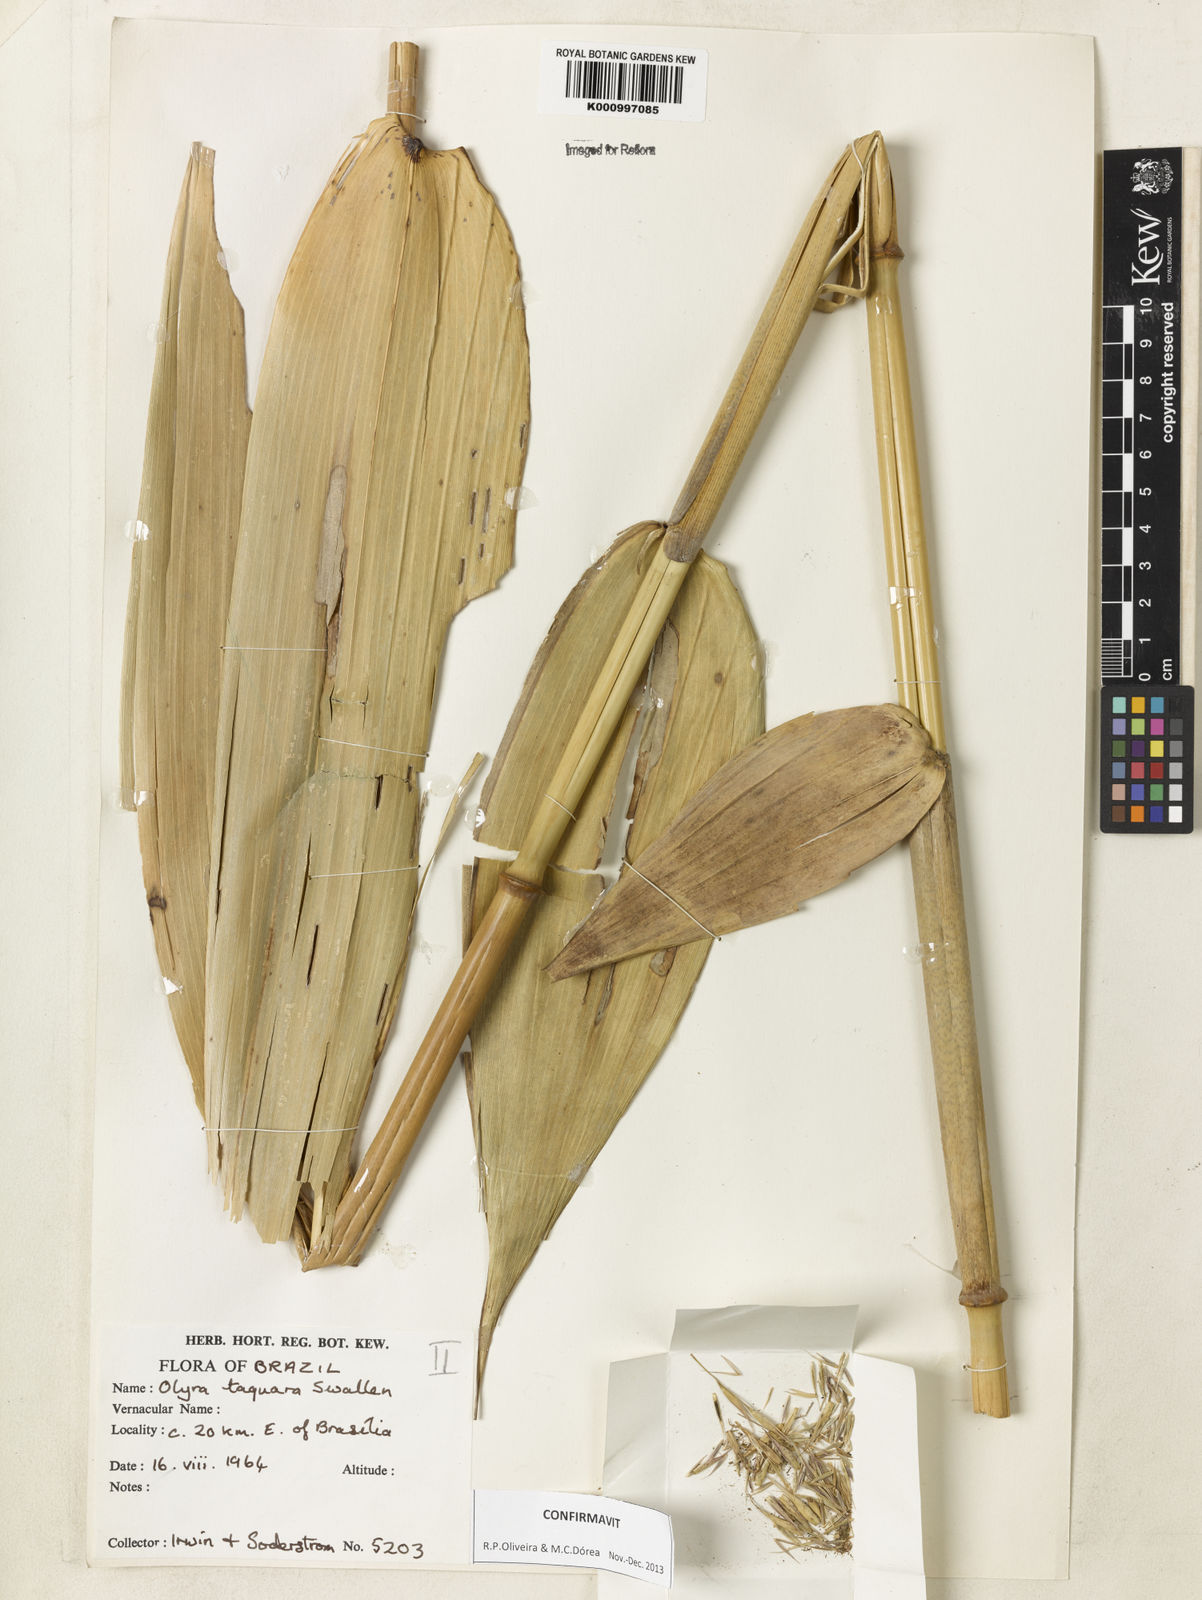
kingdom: Plantae
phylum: Tracheophyta
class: Liliopsida
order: Poales
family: Poaceae
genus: Olyra
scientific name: Olyra taquara
